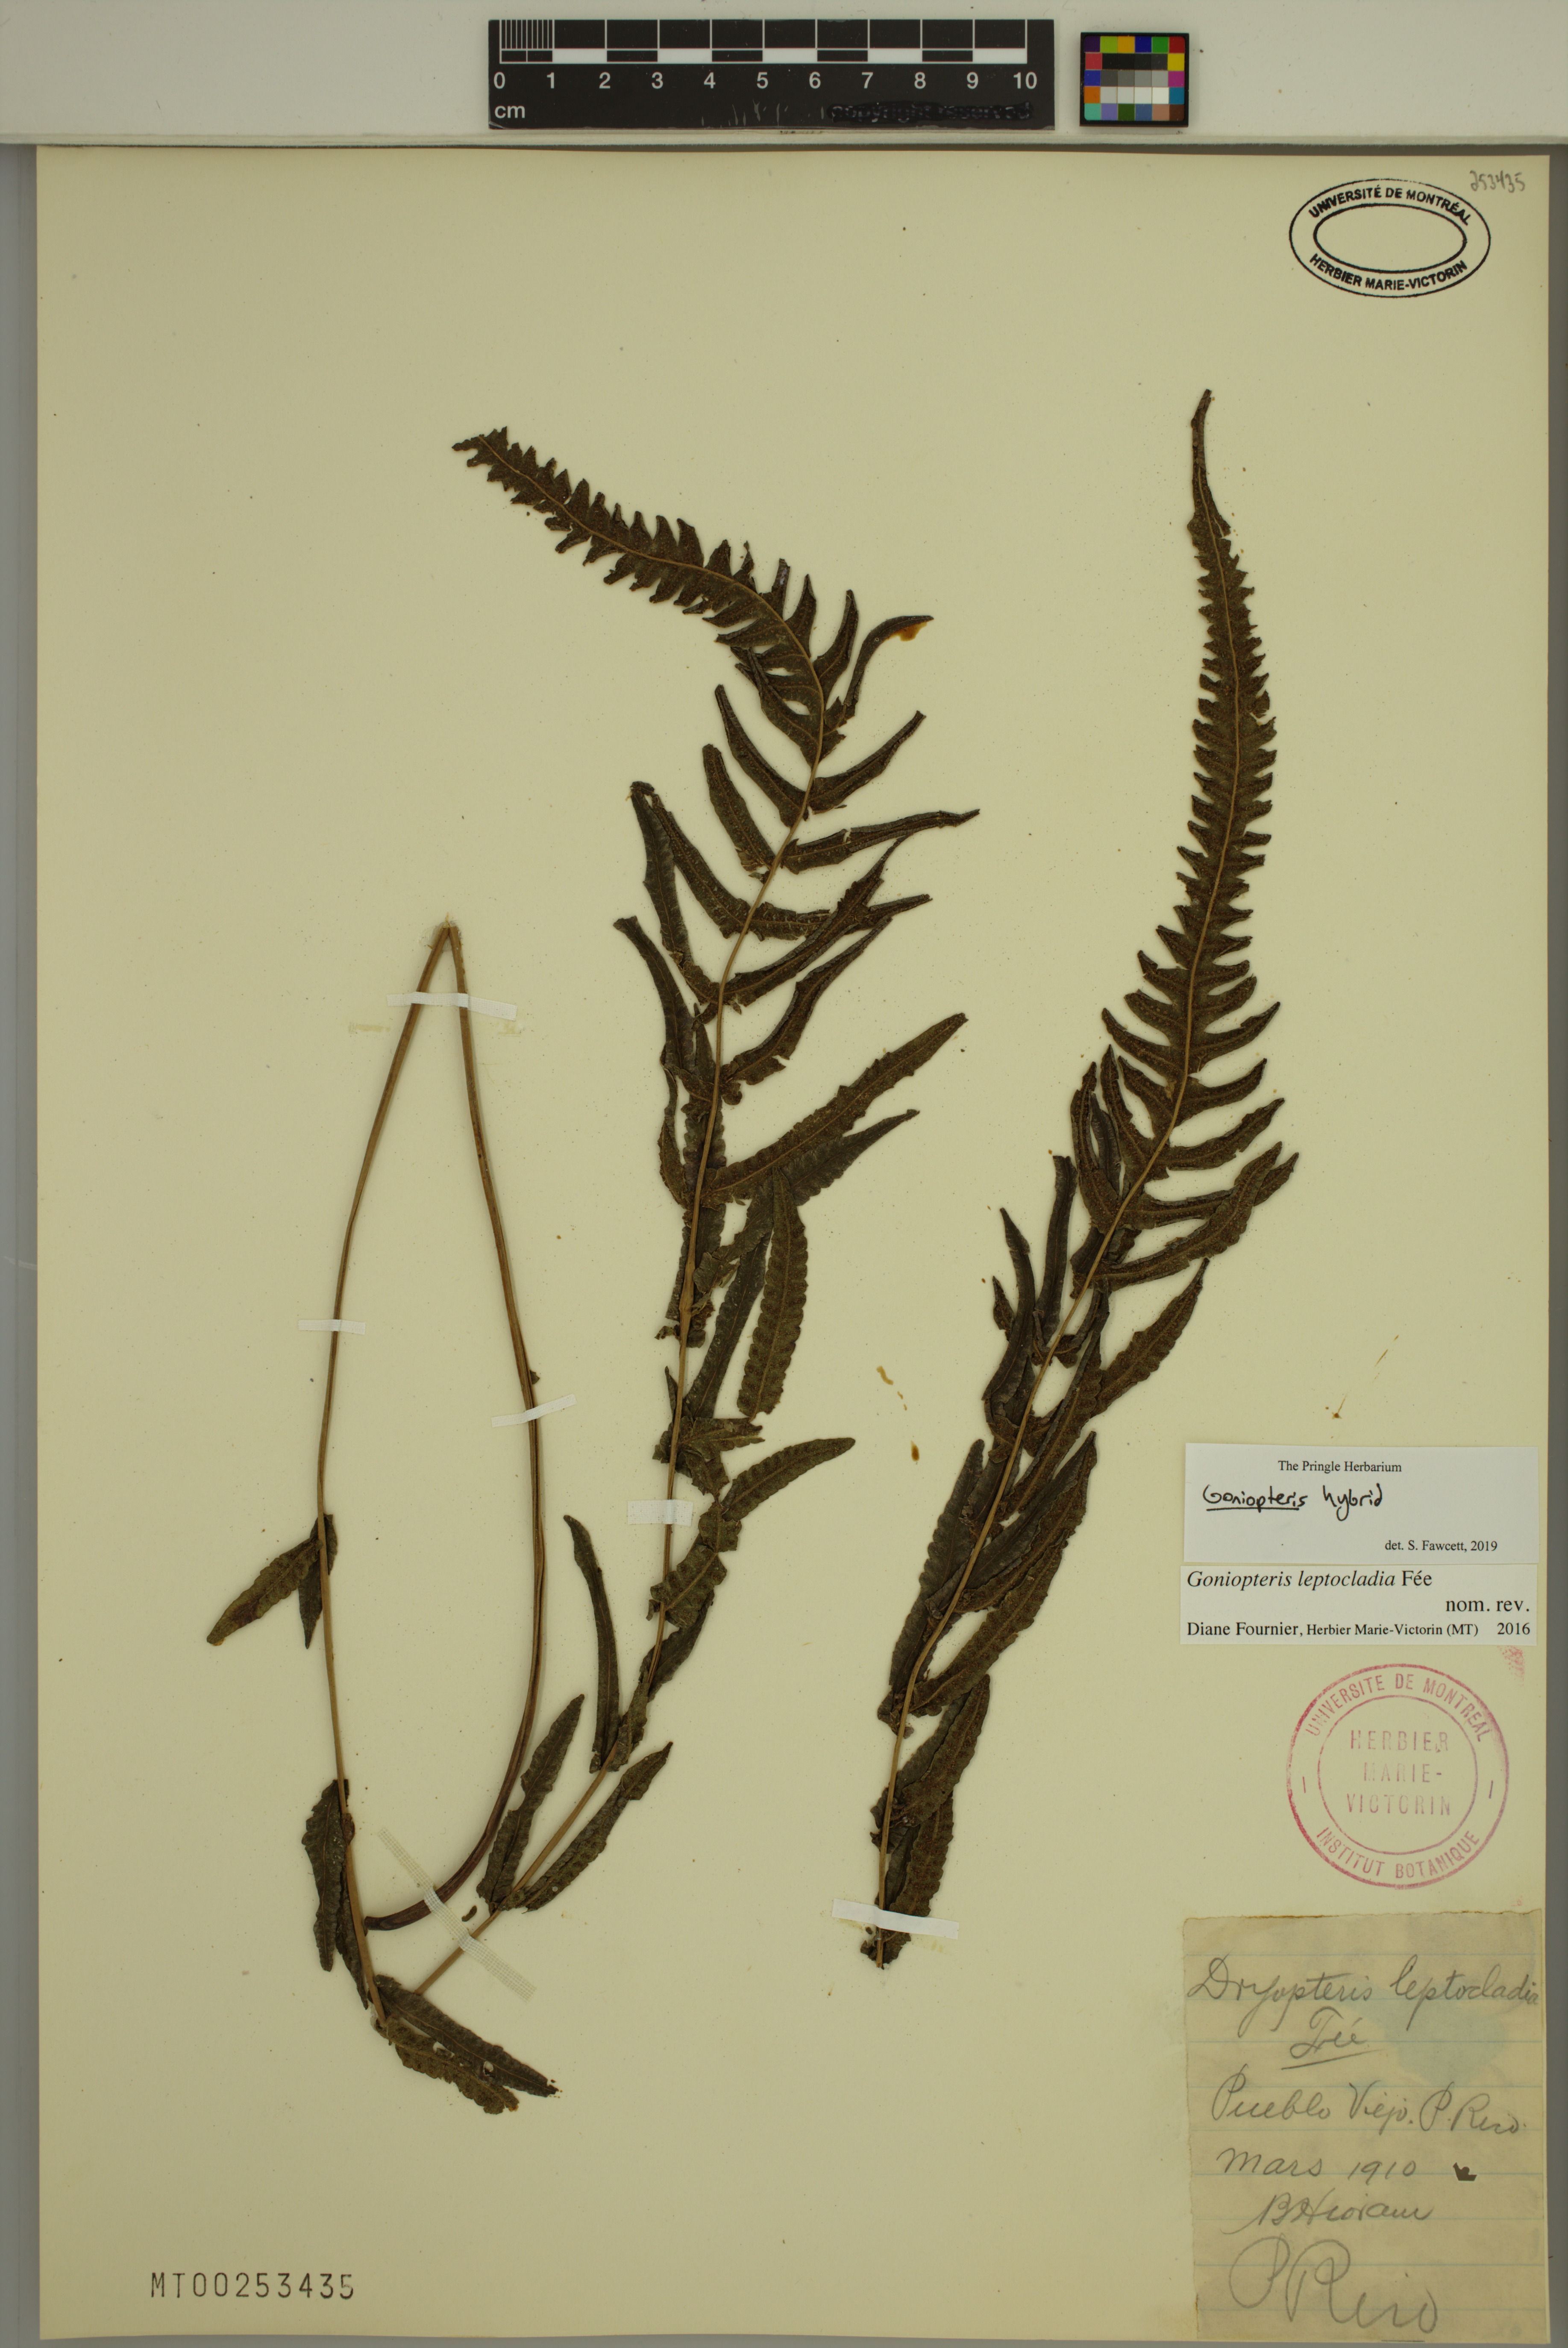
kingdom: Plantae
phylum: Tracheophyta
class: Polypodiopsida
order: Polypodiales
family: Thelypteridaceae
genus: Goniopteris
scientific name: Goniopteris
